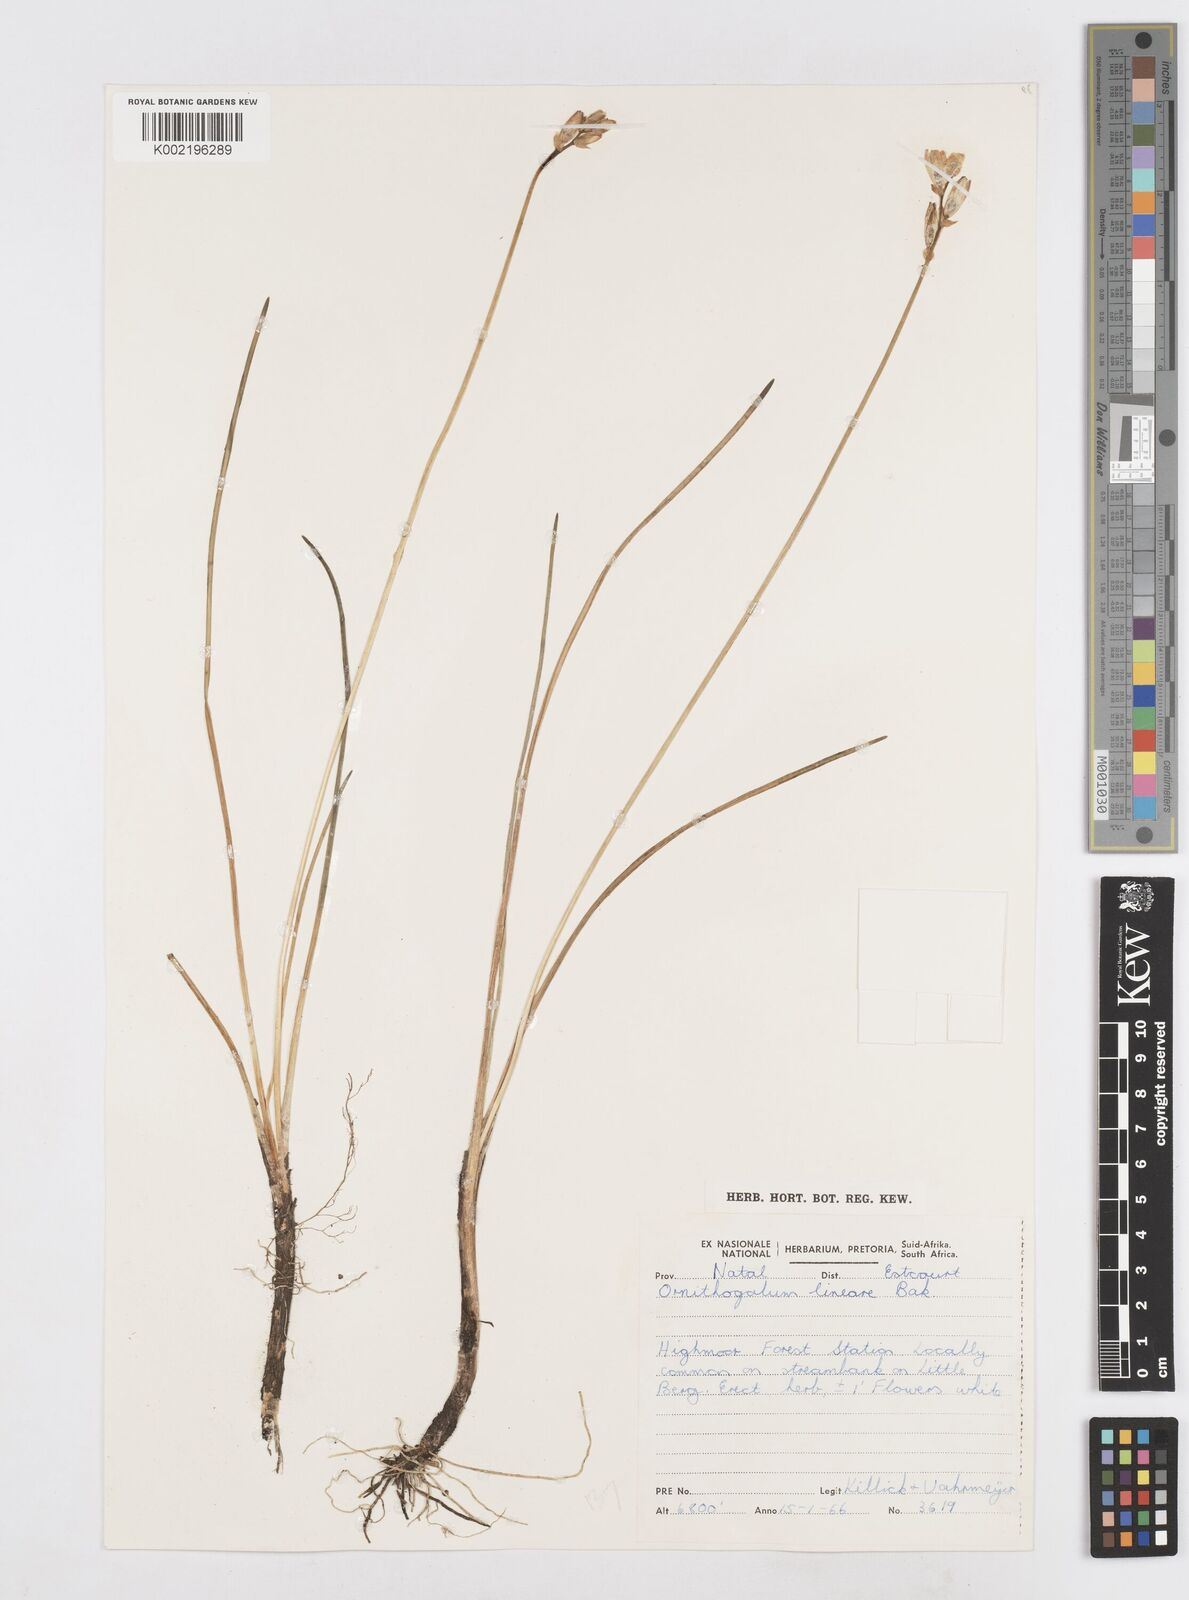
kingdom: Plantae
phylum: Tracheophyta
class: Liliopsida
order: Asparagales
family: Asparagaceae
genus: Ornithogalum
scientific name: Ornithogalum paludosum
